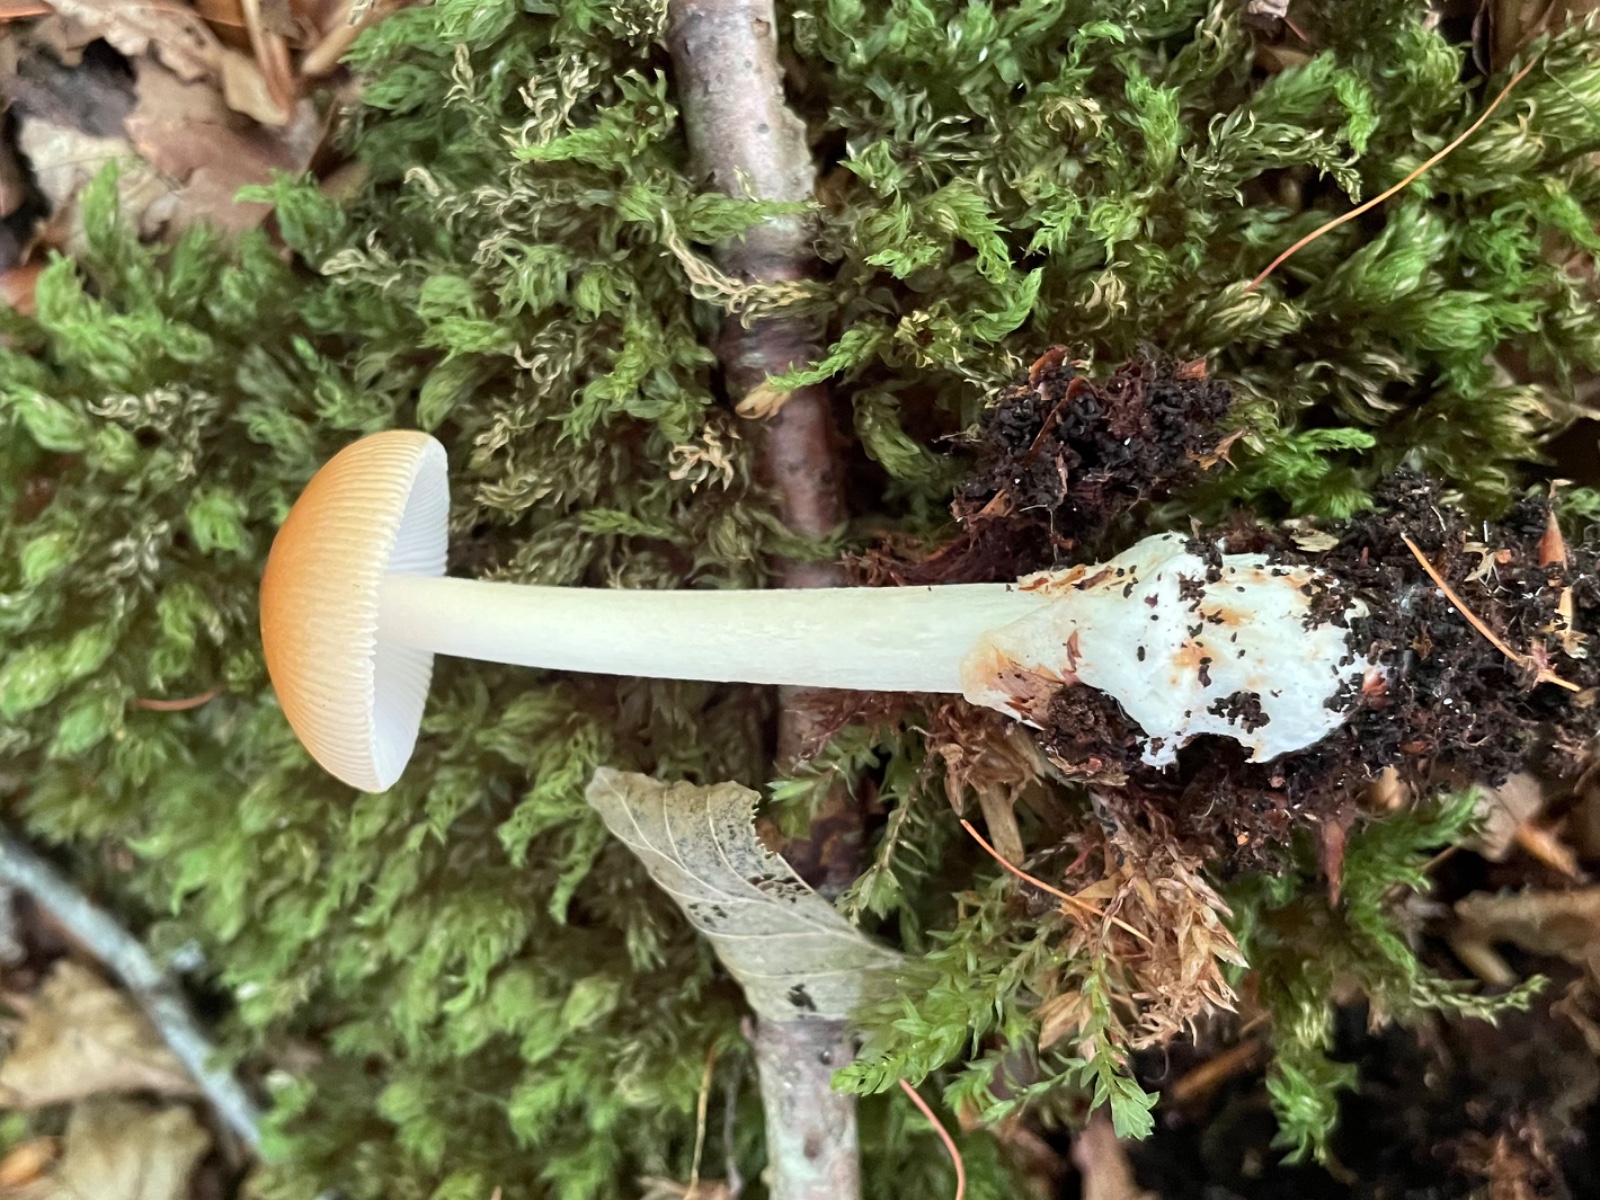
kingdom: Fungi
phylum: Basidiomycota
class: Agaricomycetes
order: Agaricales
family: Amanitaceae
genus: Amanita
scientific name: Amanita fulva
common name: brun kam-fluesvamp
